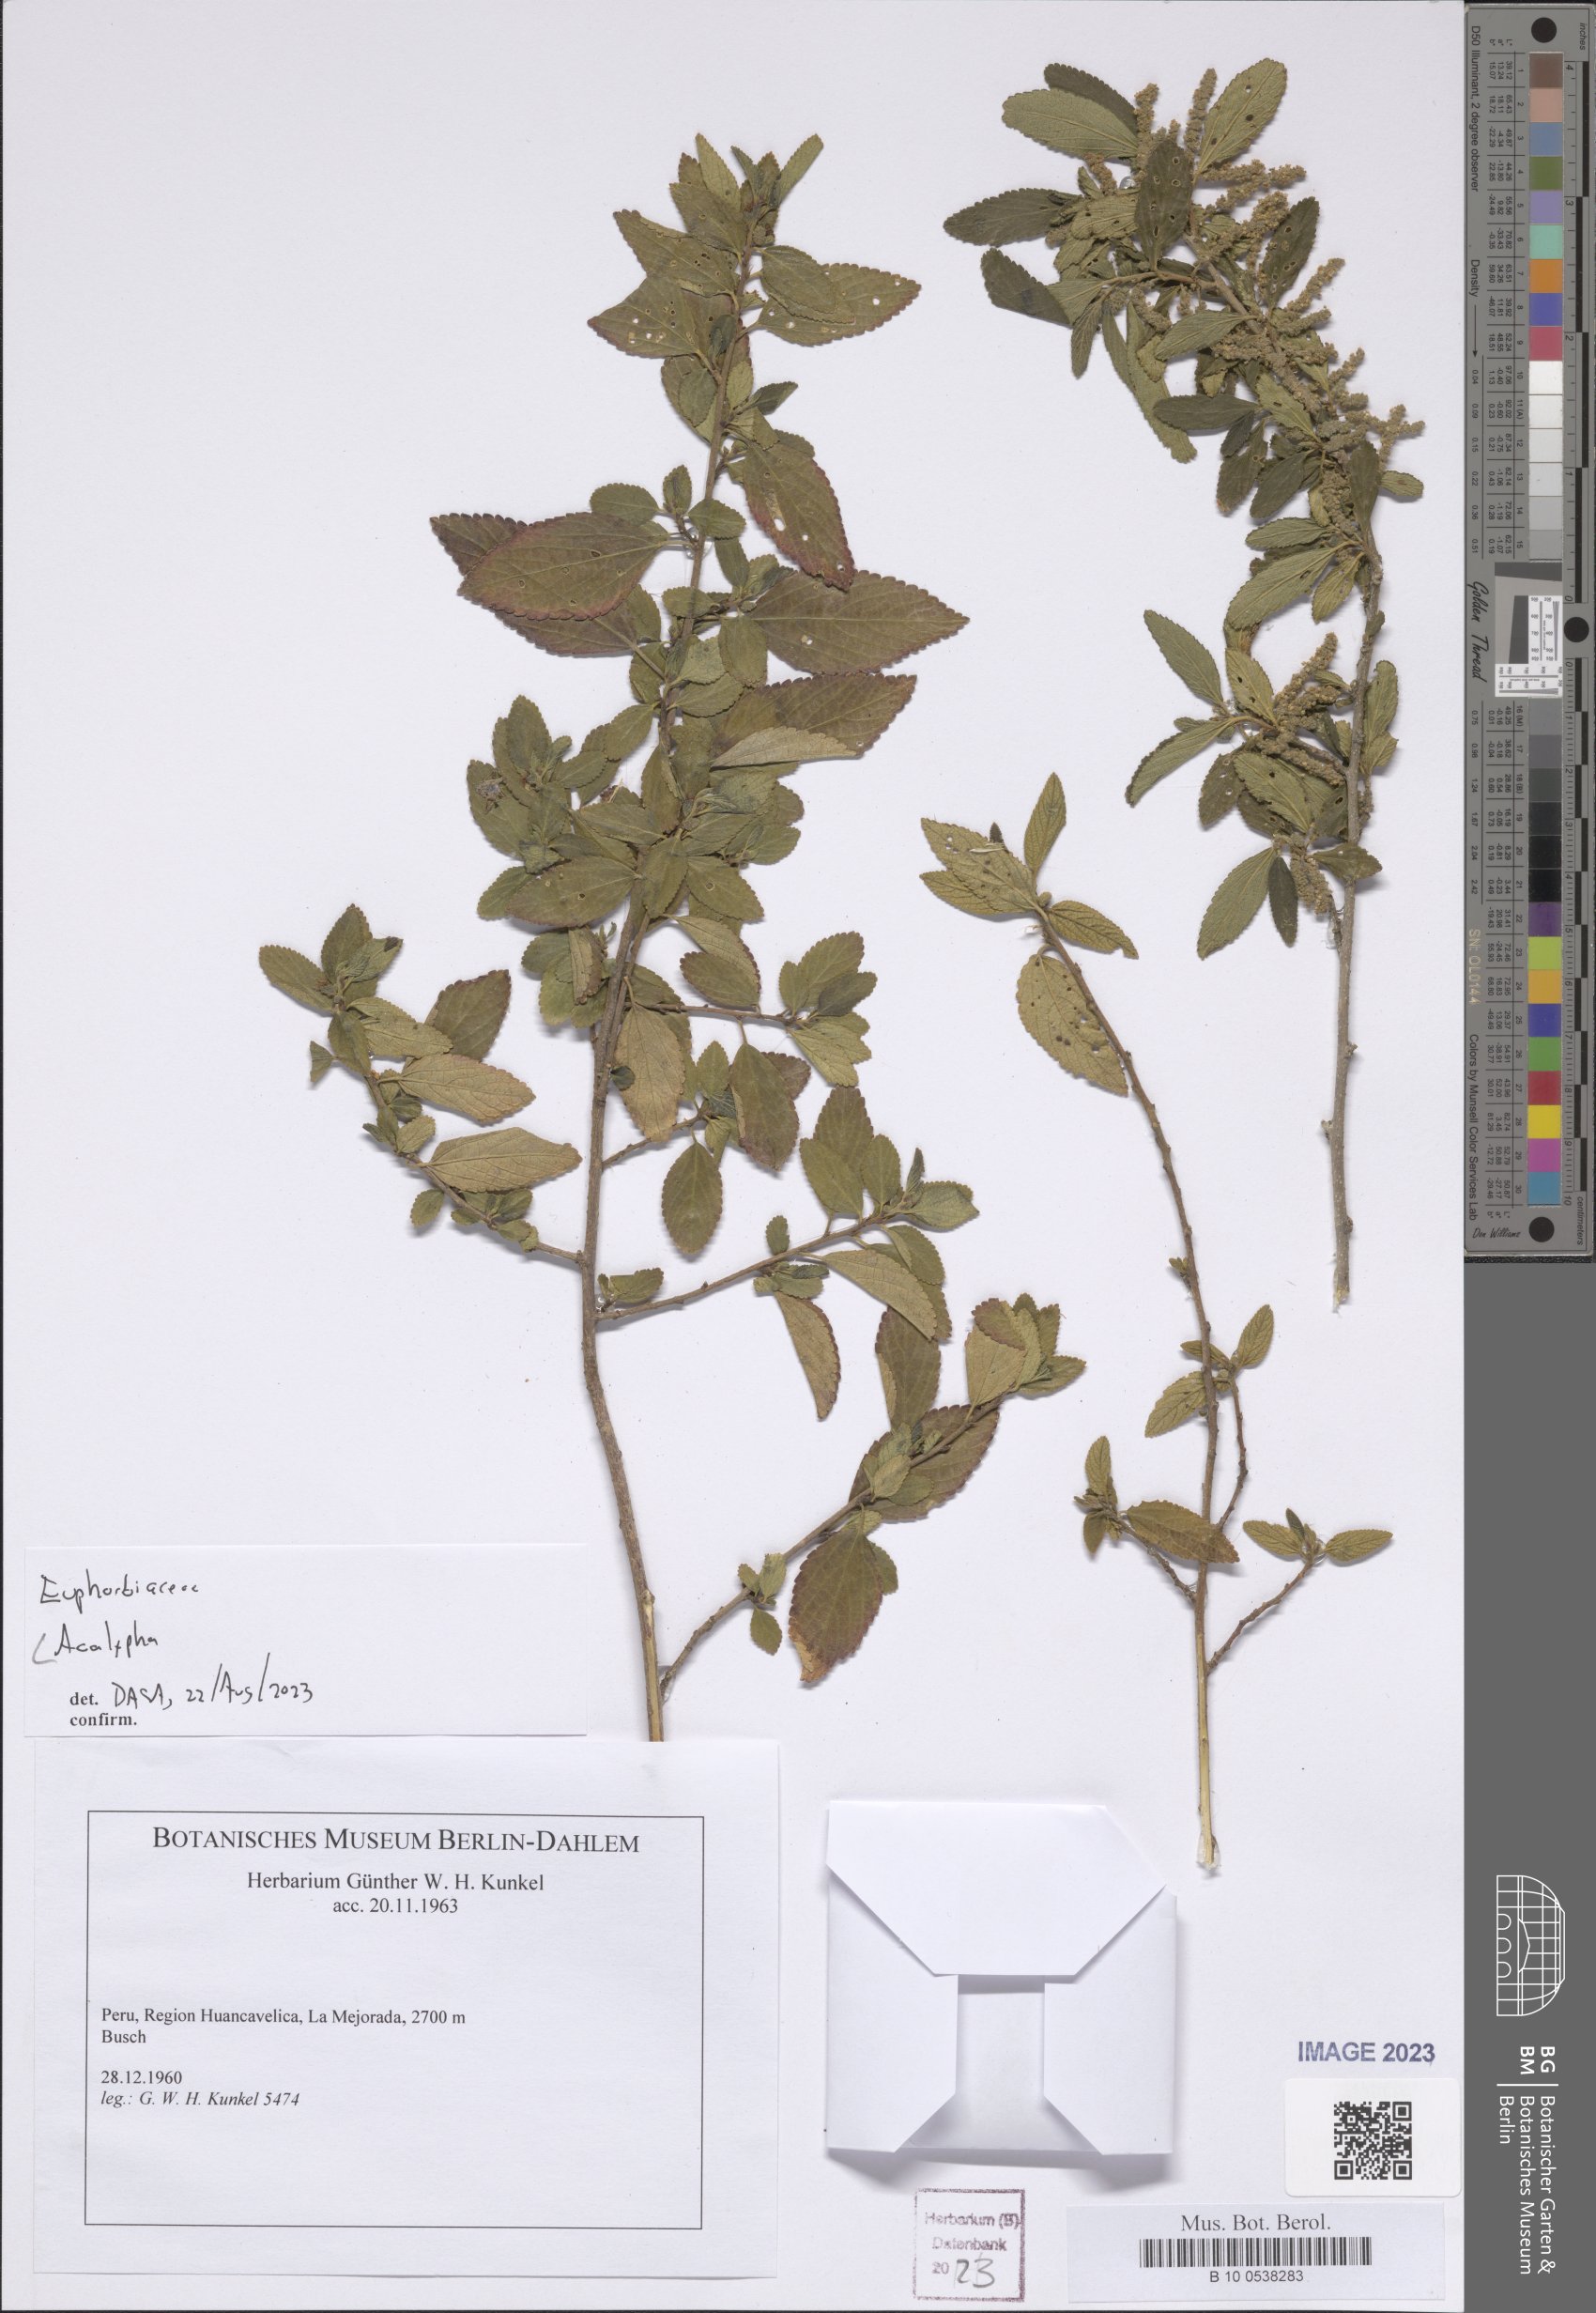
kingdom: Plantae
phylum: Tracheophyta
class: Magnoliopsida
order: Malpighiales
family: Euphorbiaceae
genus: Acalypha
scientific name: Acalypha
